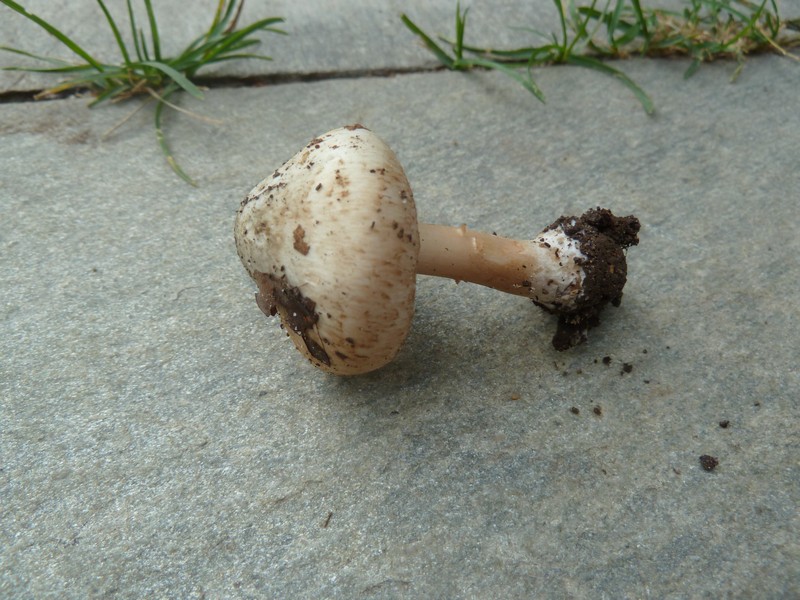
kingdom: Fungi
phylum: Basidiomycota
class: Agaricomycetes
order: Agaricales
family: Inocybaceae
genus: Inocybe
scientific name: Inocybe corydalina
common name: grønpuklet trævlhat
